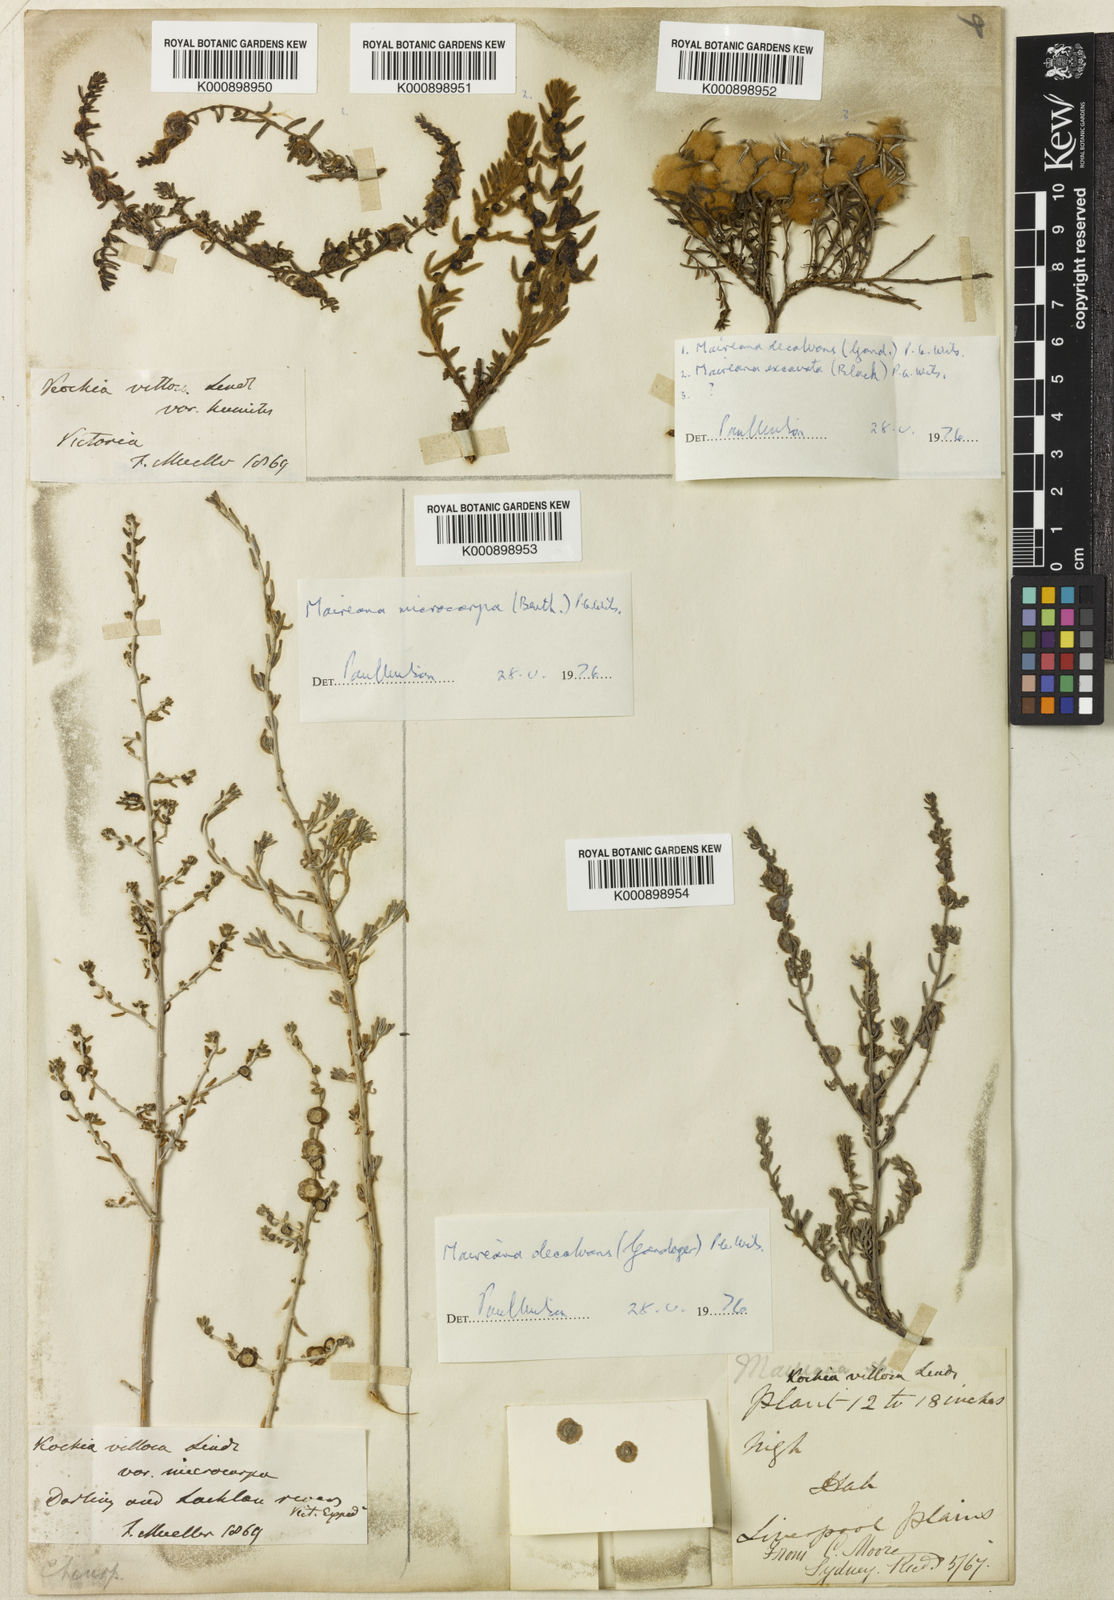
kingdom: Plantae
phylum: Tracheophyta
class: Magnoliopsida
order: Caryophyllales
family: Amaranthaceae
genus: Maireana
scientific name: Maireana villosa
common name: Silky bluebush
